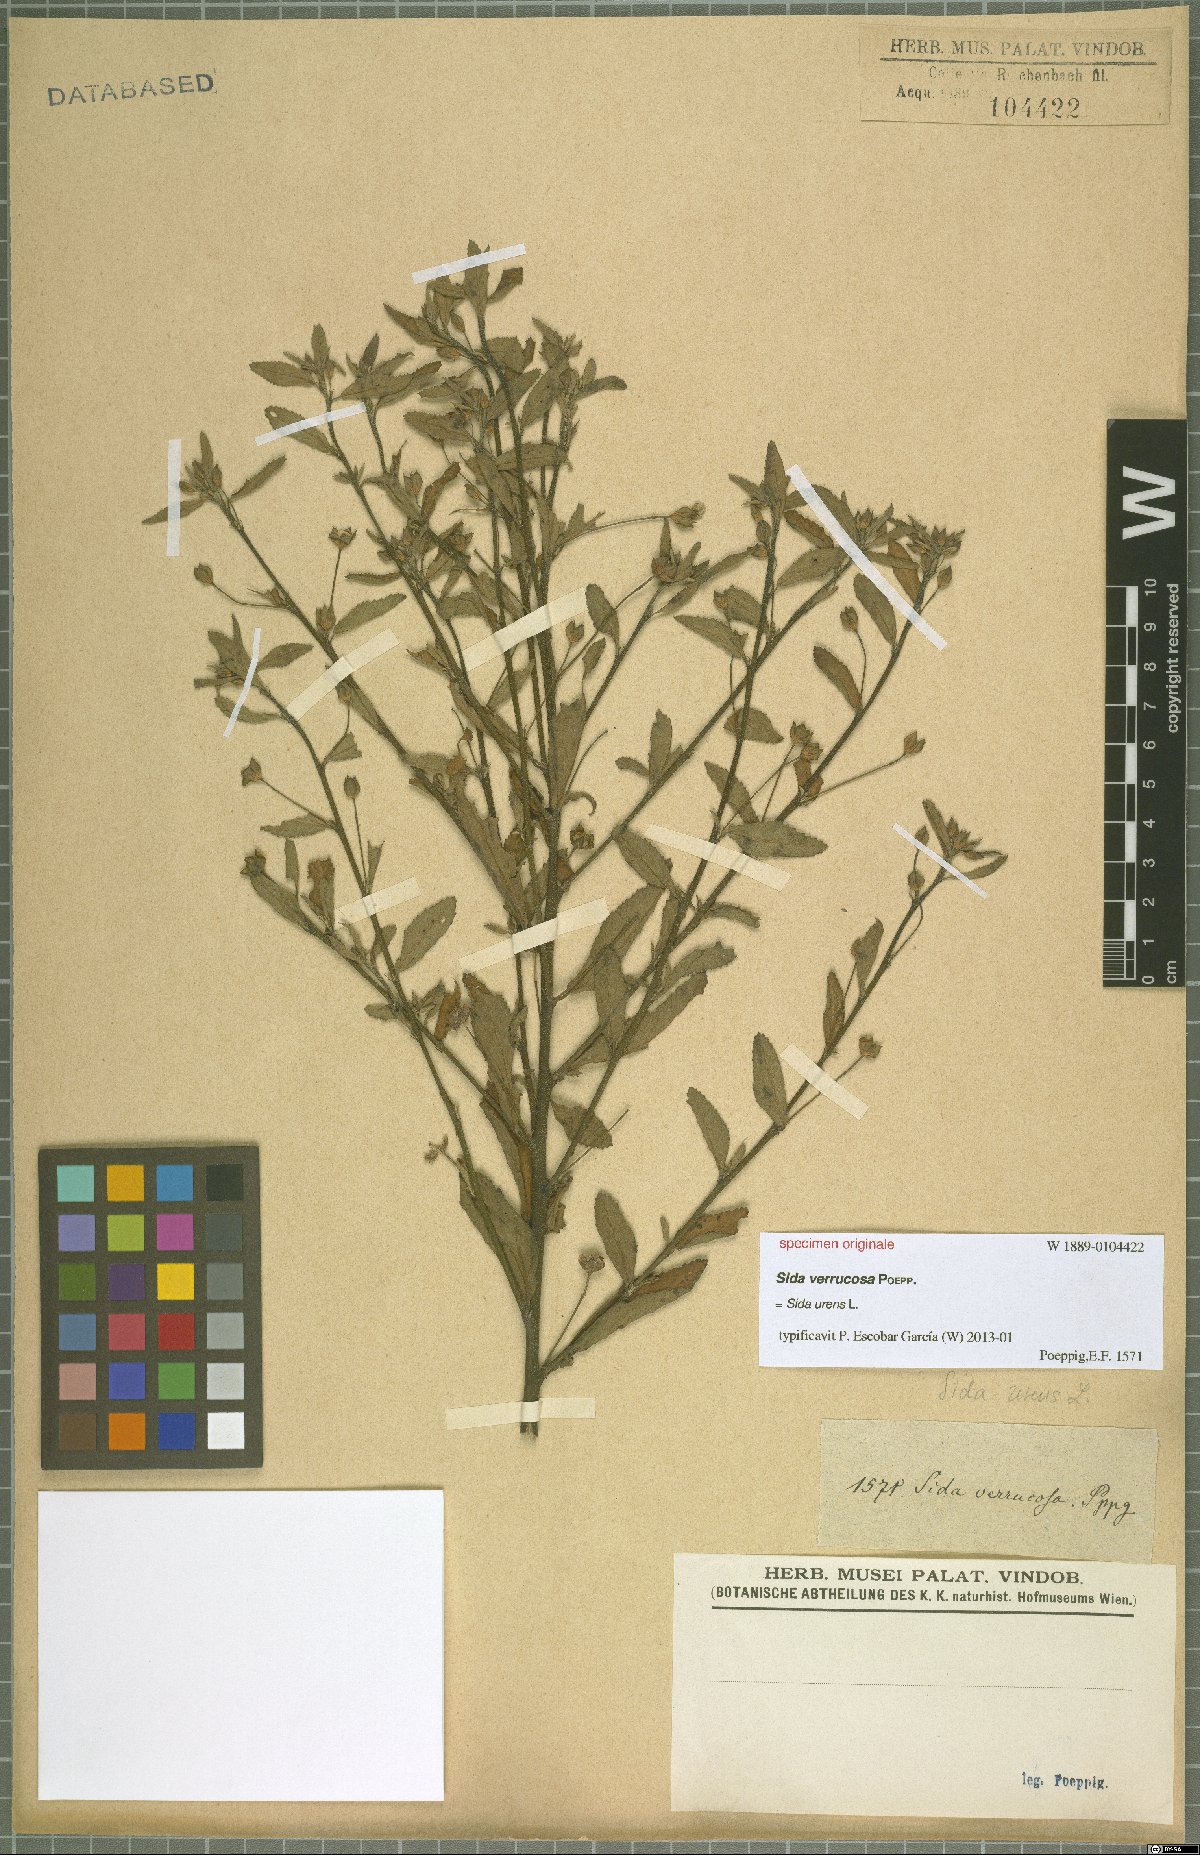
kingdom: Plantae
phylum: Tracheophyta
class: Magnoliopsida
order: Malvales
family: Malvaceae
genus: Sida
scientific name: Sida urens
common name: Tropical fanpetals
